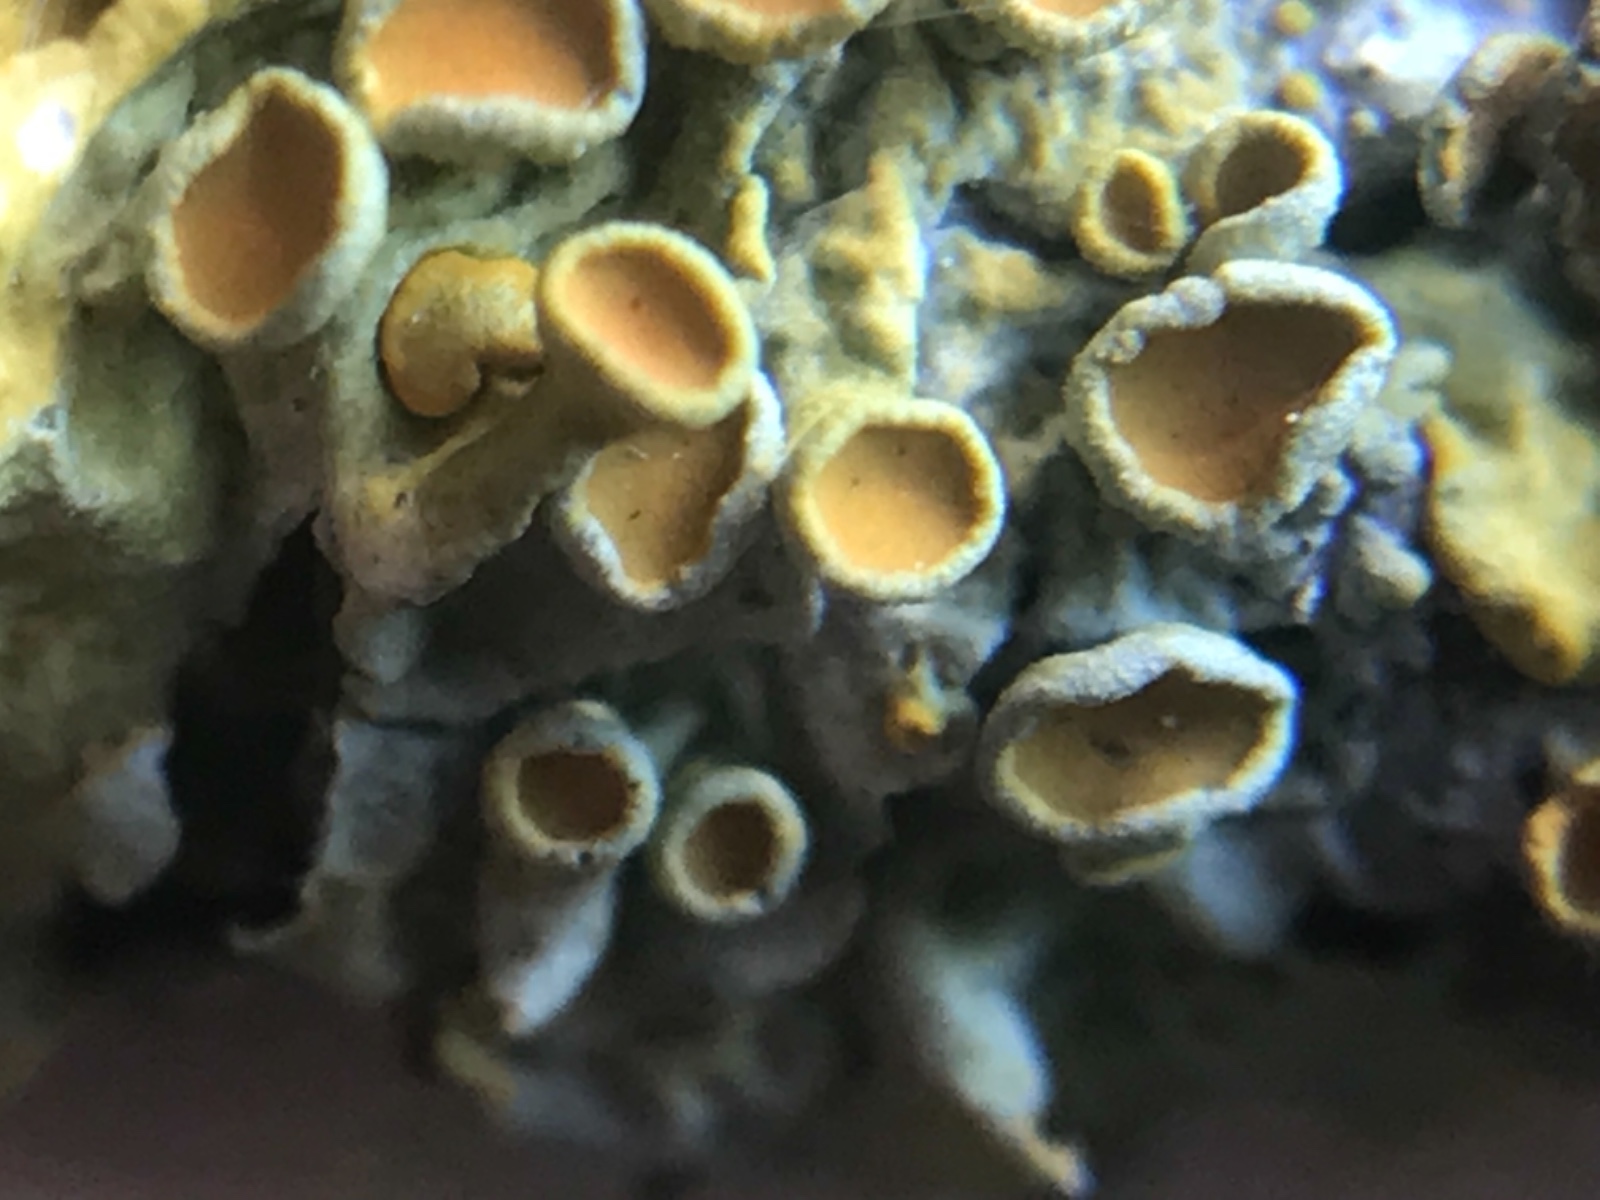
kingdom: Fungi
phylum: Ascomycota
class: Lecanoromycetes
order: Teloschistales
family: Teloschistaceae
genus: Xanthoria
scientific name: Xanthoria parietina
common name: almindelig væggelav
